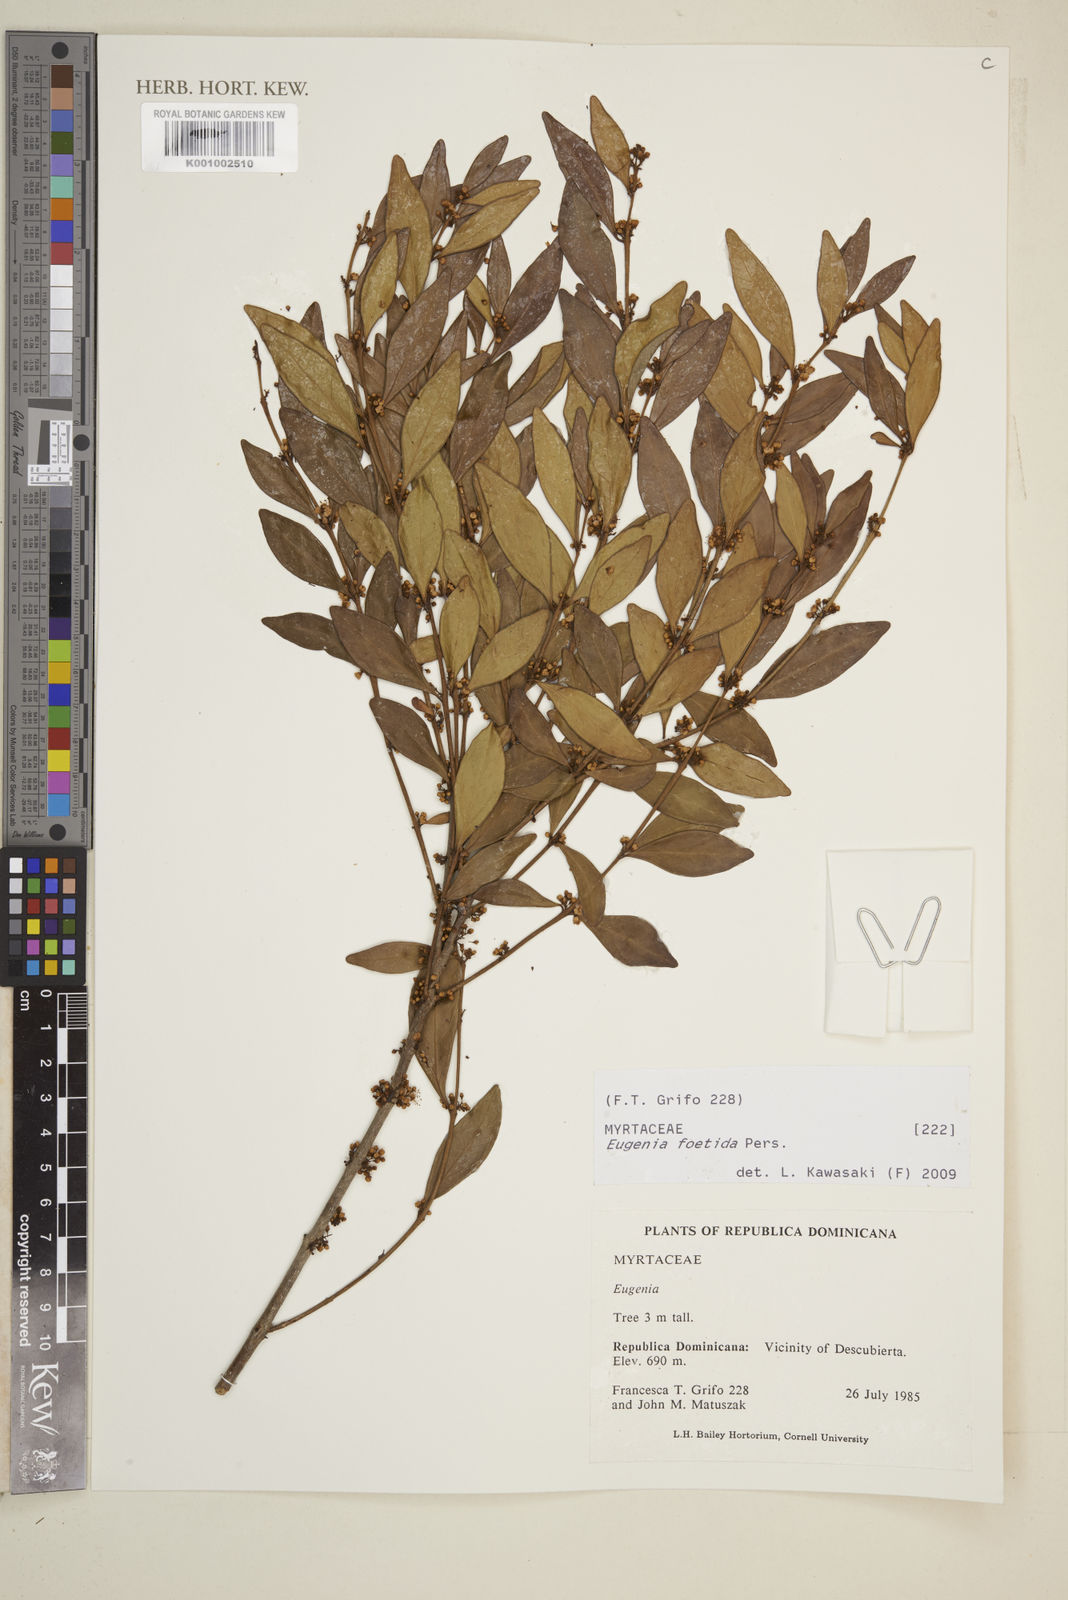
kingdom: Plantae
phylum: Tracheophyta
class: Magnoliopsida
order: Myrtales
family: Myrtaceae
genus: Eugenia
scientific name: Eugenia foetida
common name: White wattling
